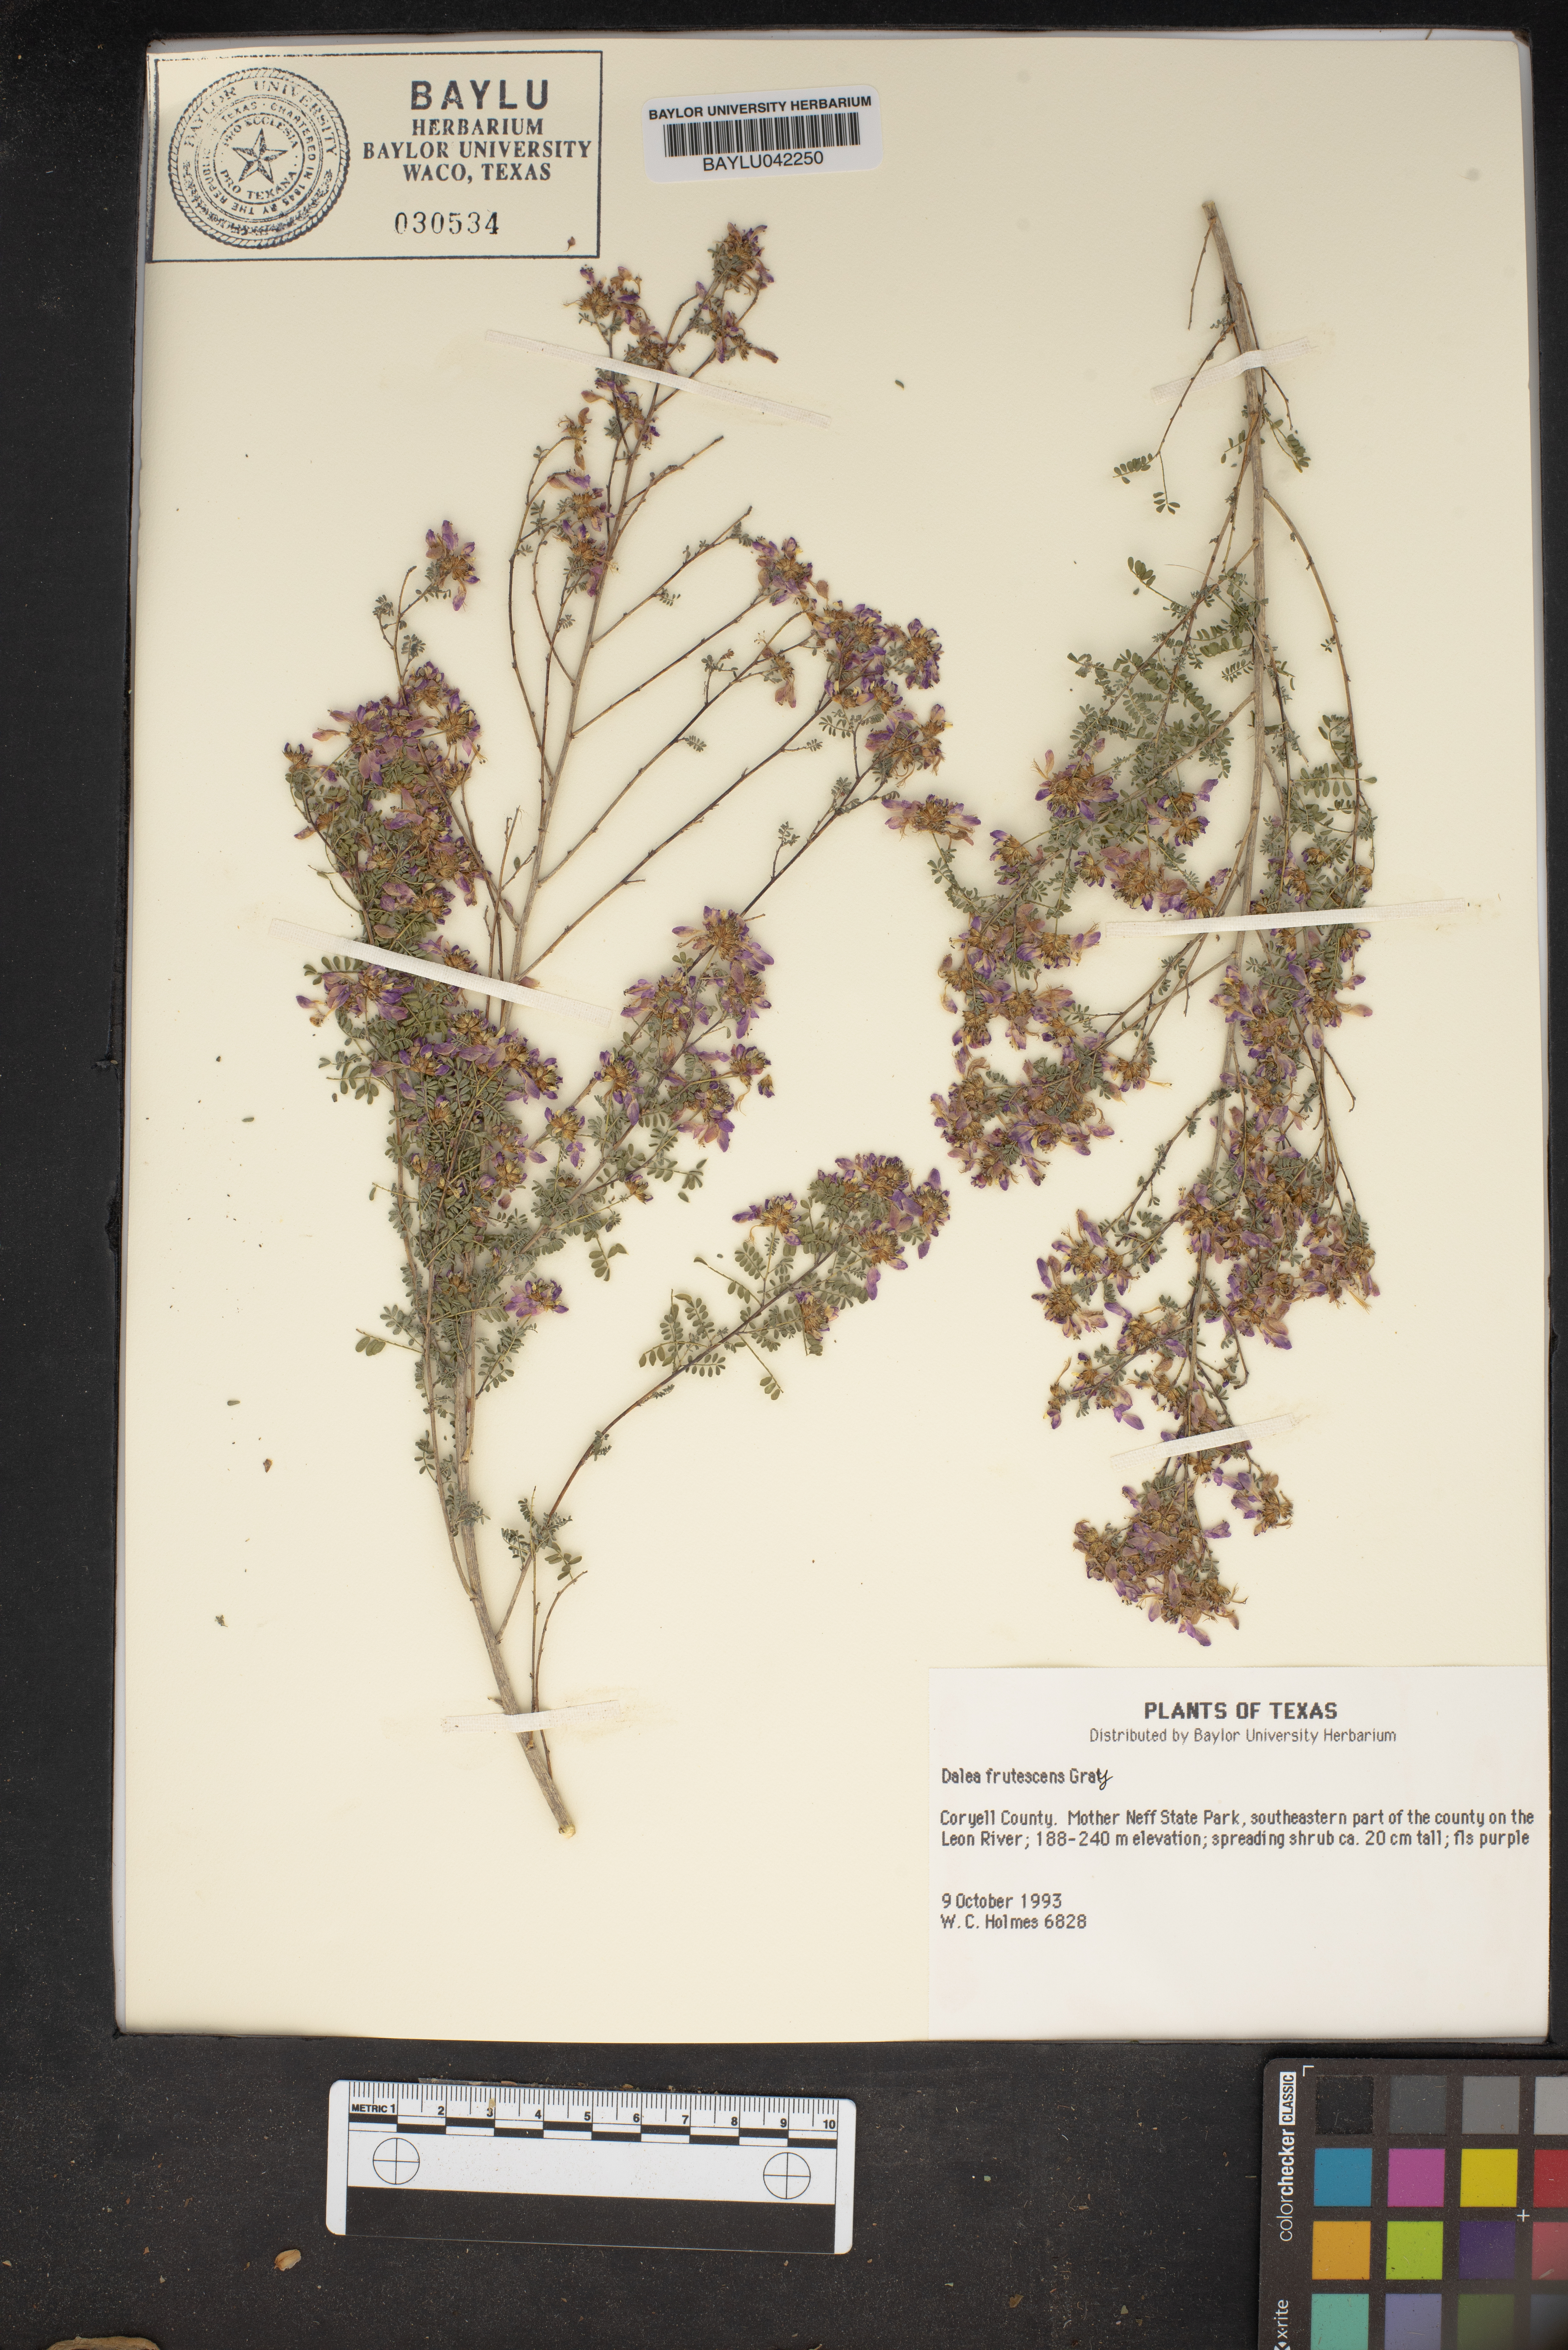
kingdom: Plantae
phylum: Tracheophyta
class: Magnoliopsida
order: Fabales
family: Fabaceae
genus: Dalea
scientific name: Dalea frutescens
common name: Black dalea
